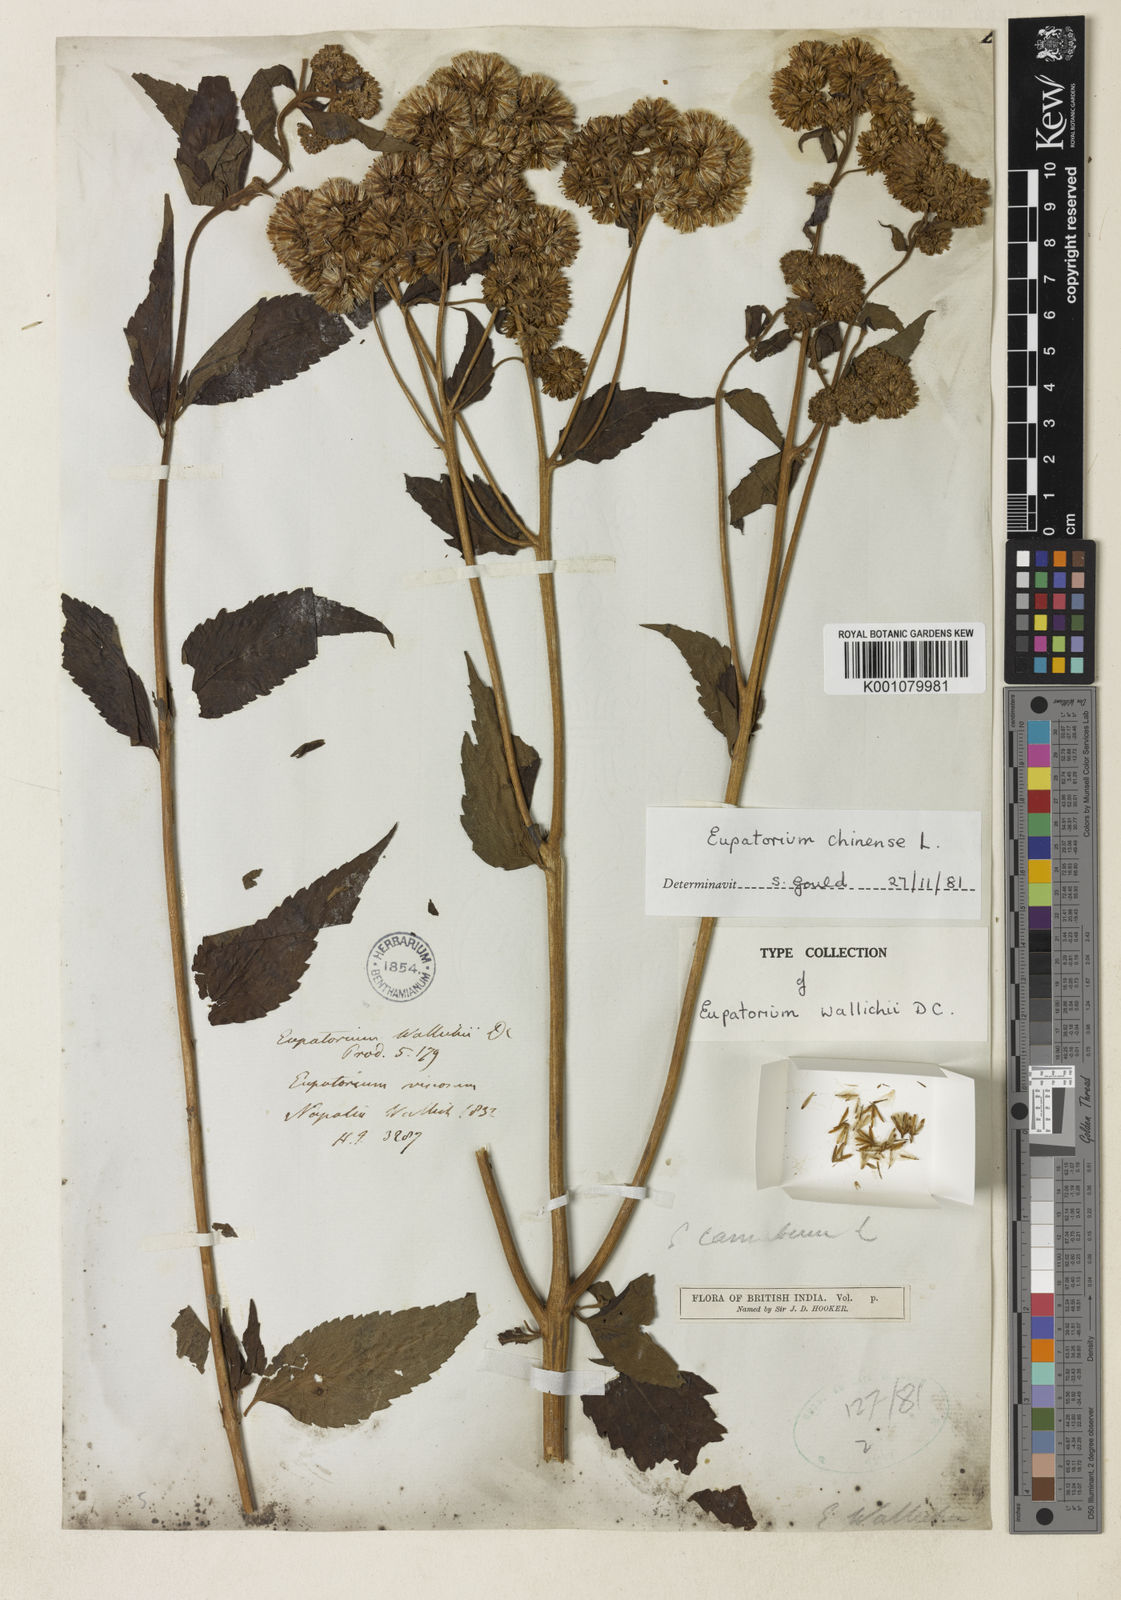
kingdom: Plantae
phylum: Tracheophyta
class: Magnoliopsida
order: Asterales
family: Asteraceae
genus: Eupatorium
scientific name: Eupatorium cannabinum
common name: Hemp-agrimony
